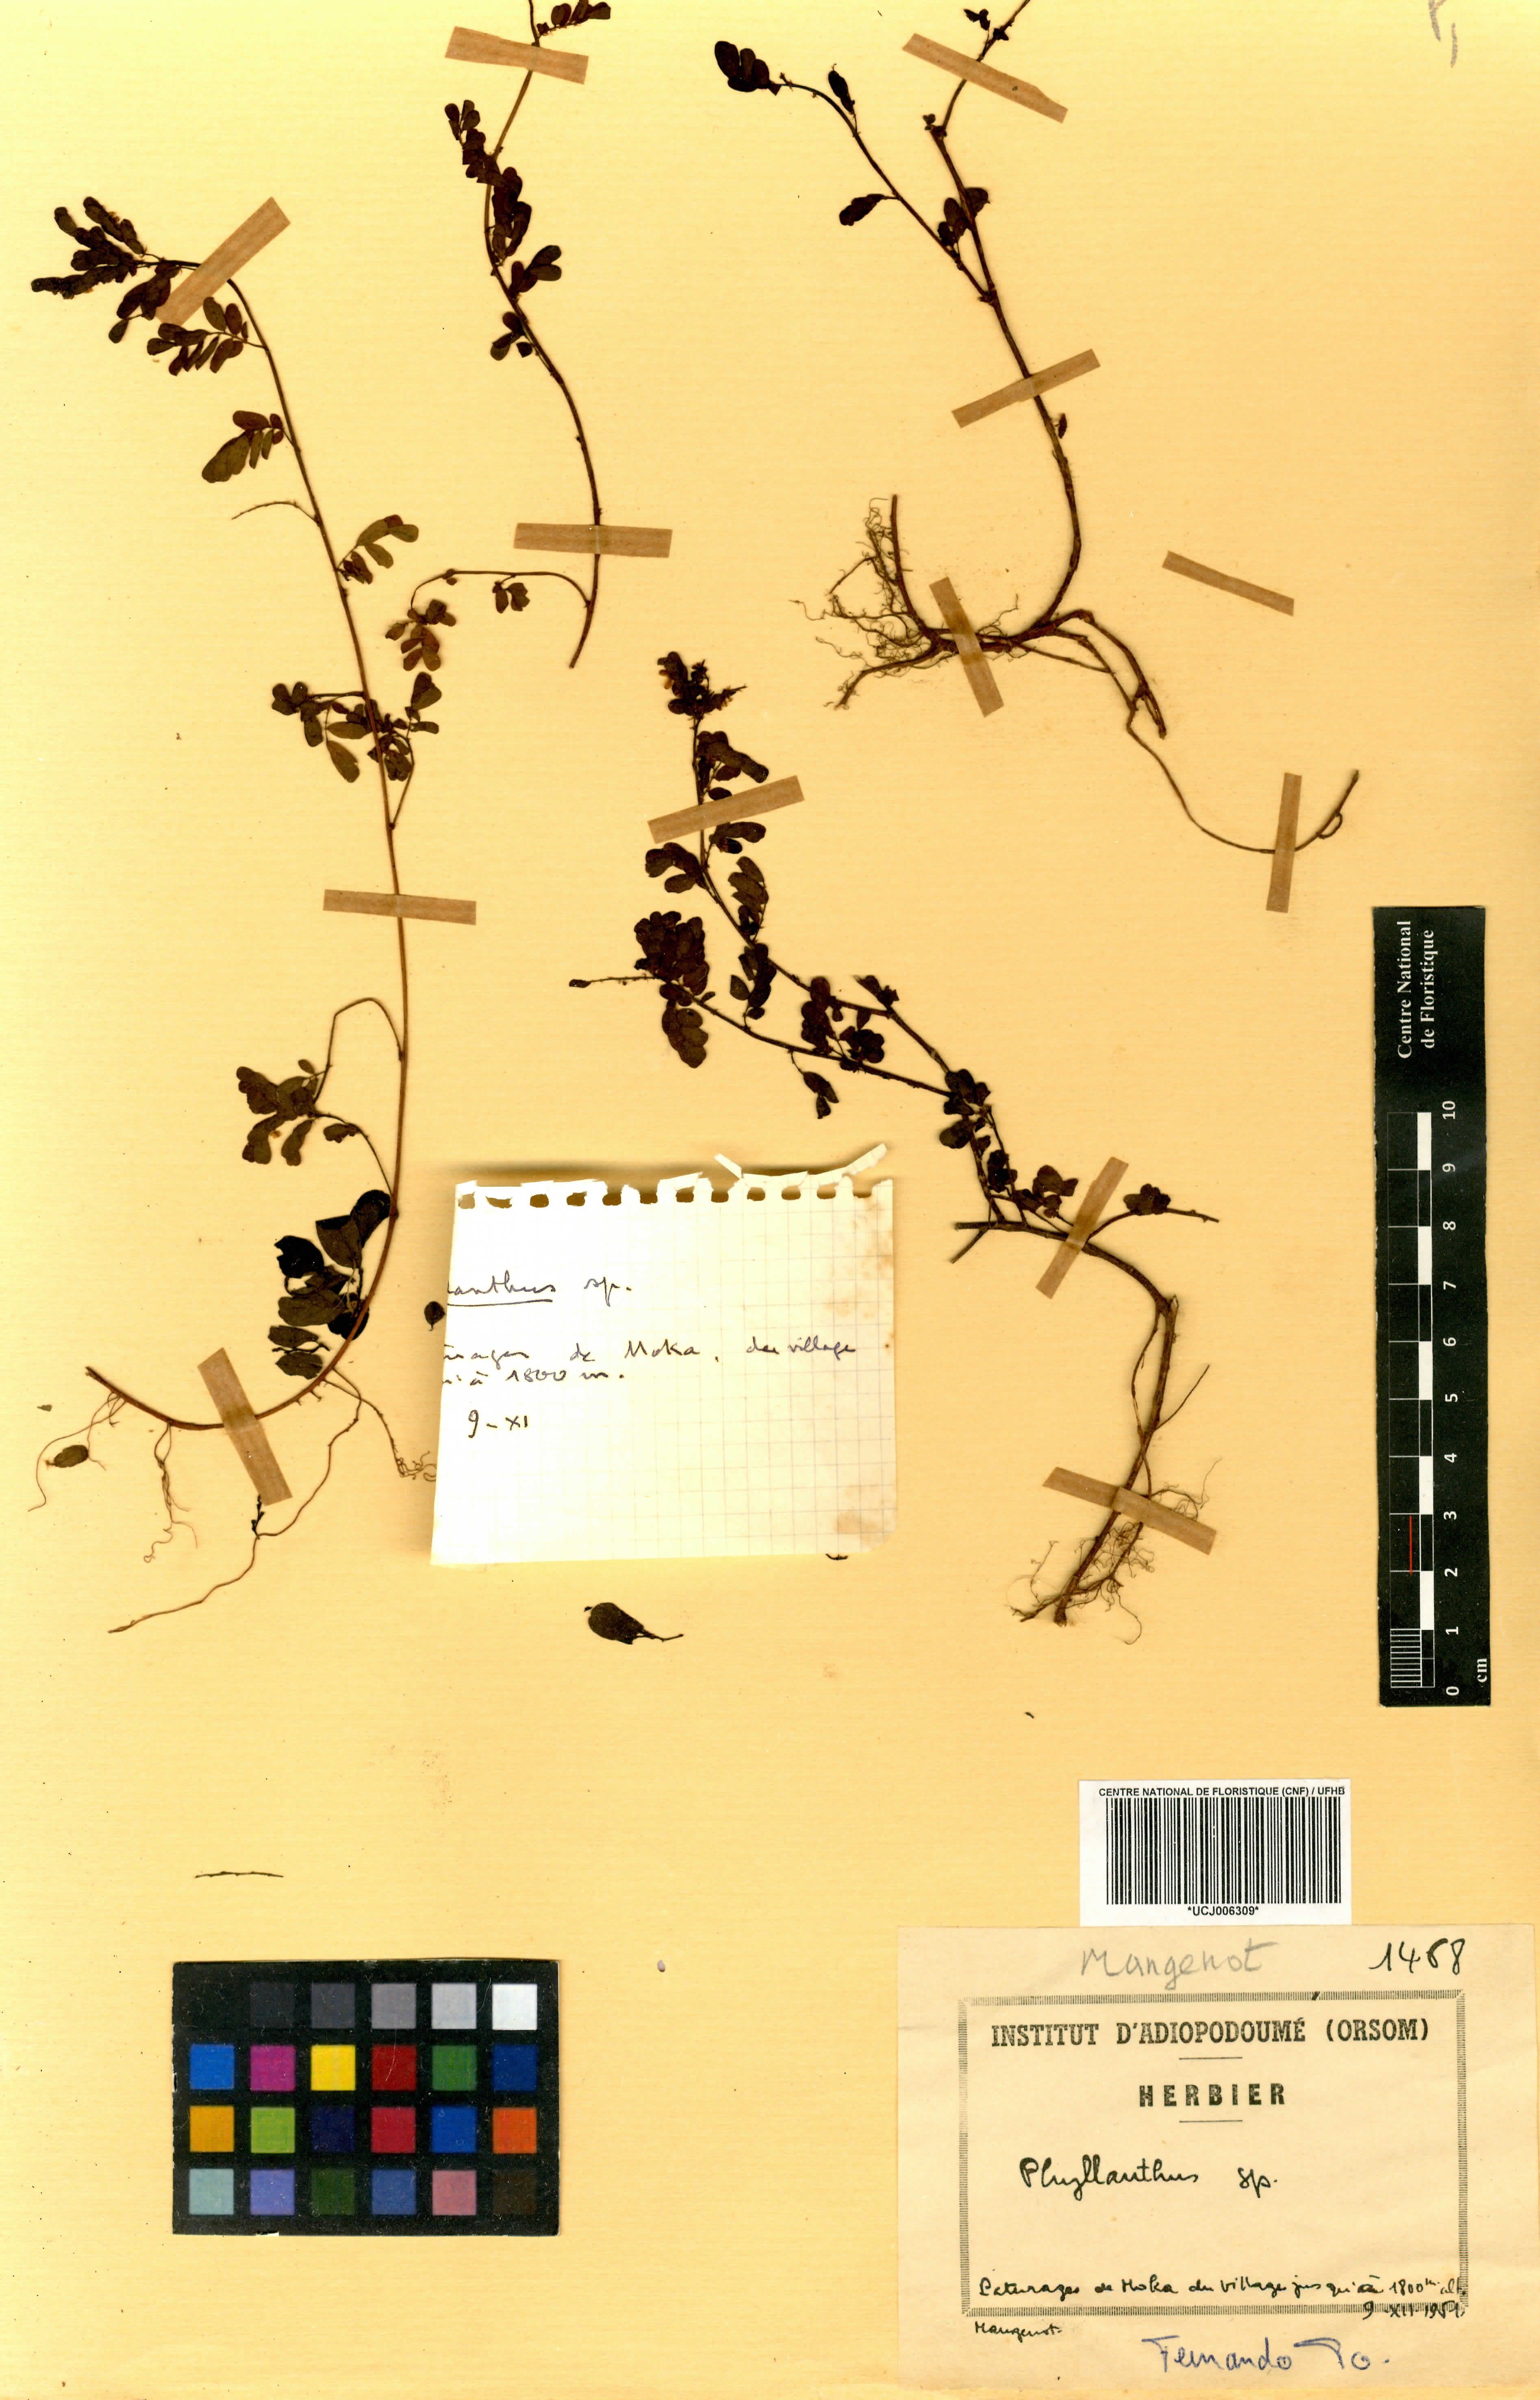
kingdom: Plantae
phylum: Tracheophyta
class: Magnoliopsida
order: Malpighiales
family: Euphorbiaceae
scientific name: Euphorbiaceae
